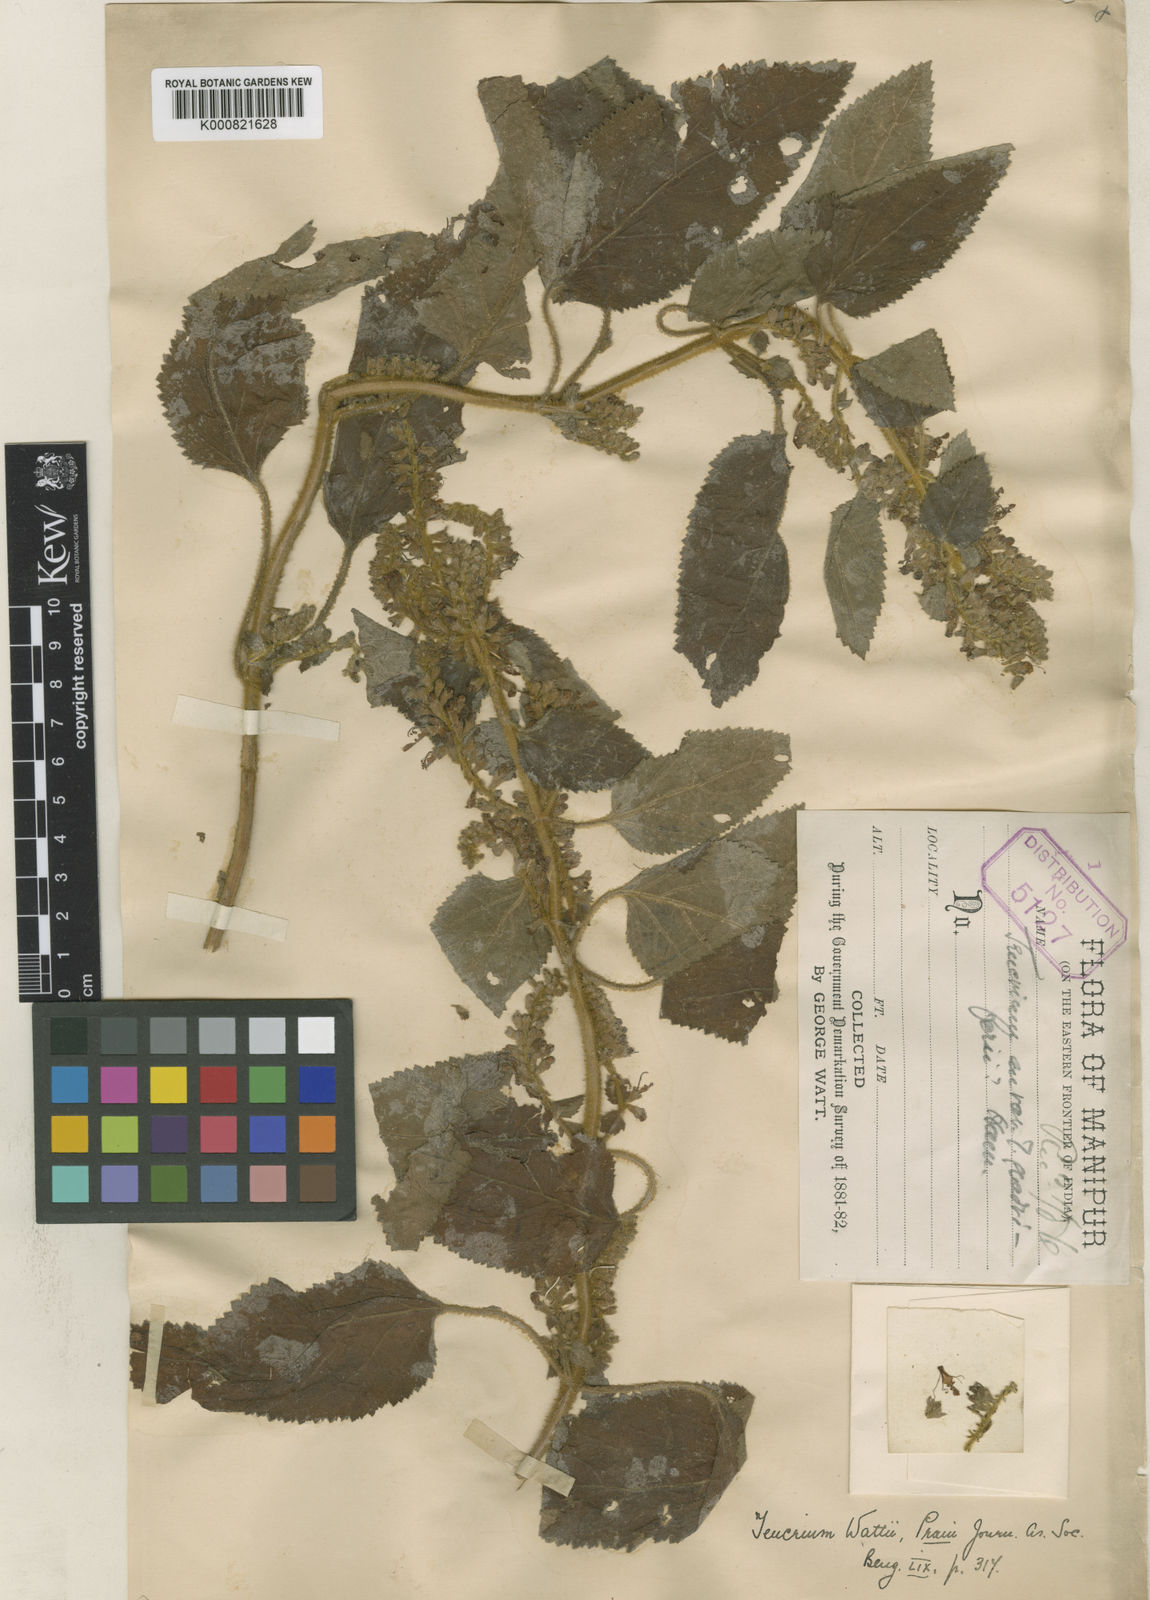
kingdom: Plantae
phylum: Tracheophyta
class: Magnoliopsida
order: Lamiales
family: Lamiaceae
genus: Teucrium
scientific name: Teucrium wattii
